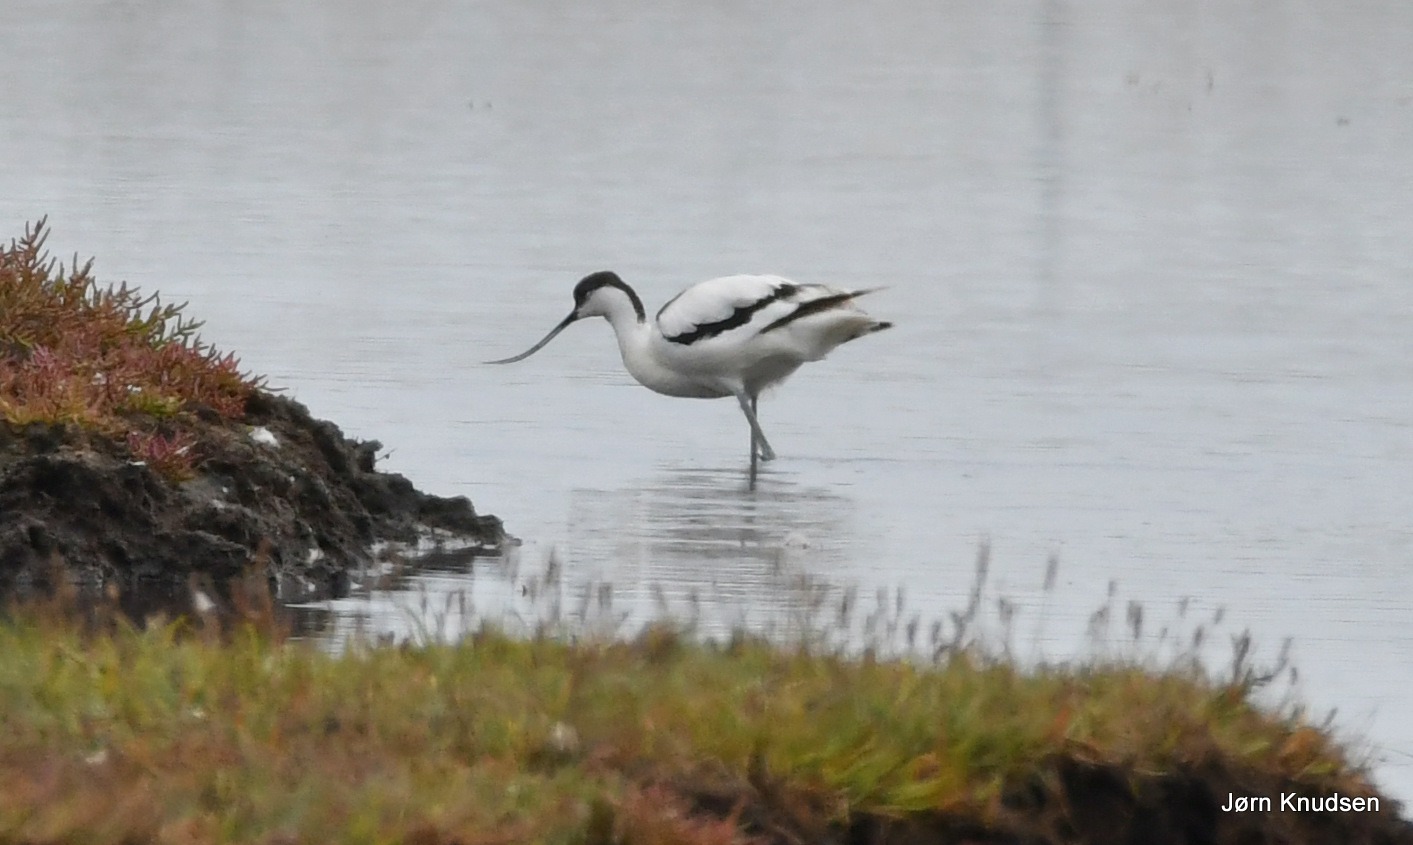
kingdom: Animalia
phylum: Chordata
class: Aves
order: Charadriiformes
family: Recurvirostridae
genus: Recurvirostra
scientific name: Recurvirostra avosetta
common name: Klyde
